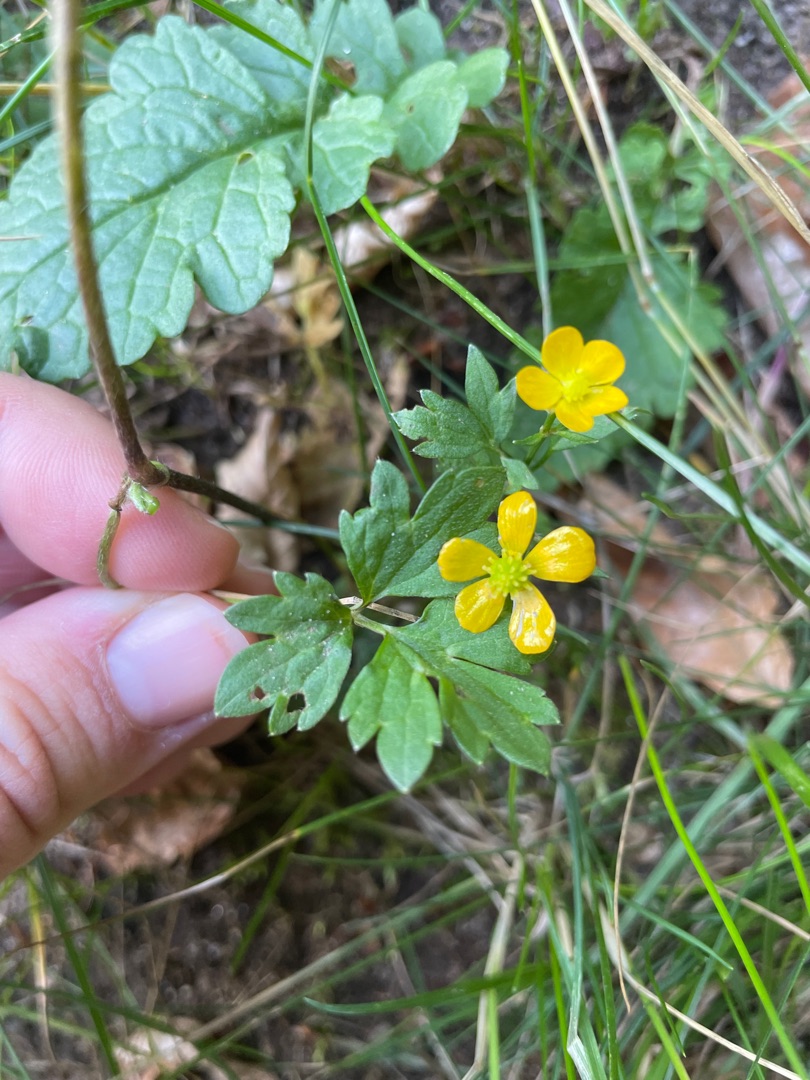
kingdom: Plantae
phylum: Tracheophyta
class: Magnoliopsida
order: Ranunculales
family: Ranunculaceae
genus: Ranunculus
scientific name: Ranunculus repens
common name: Lav ranunkel
